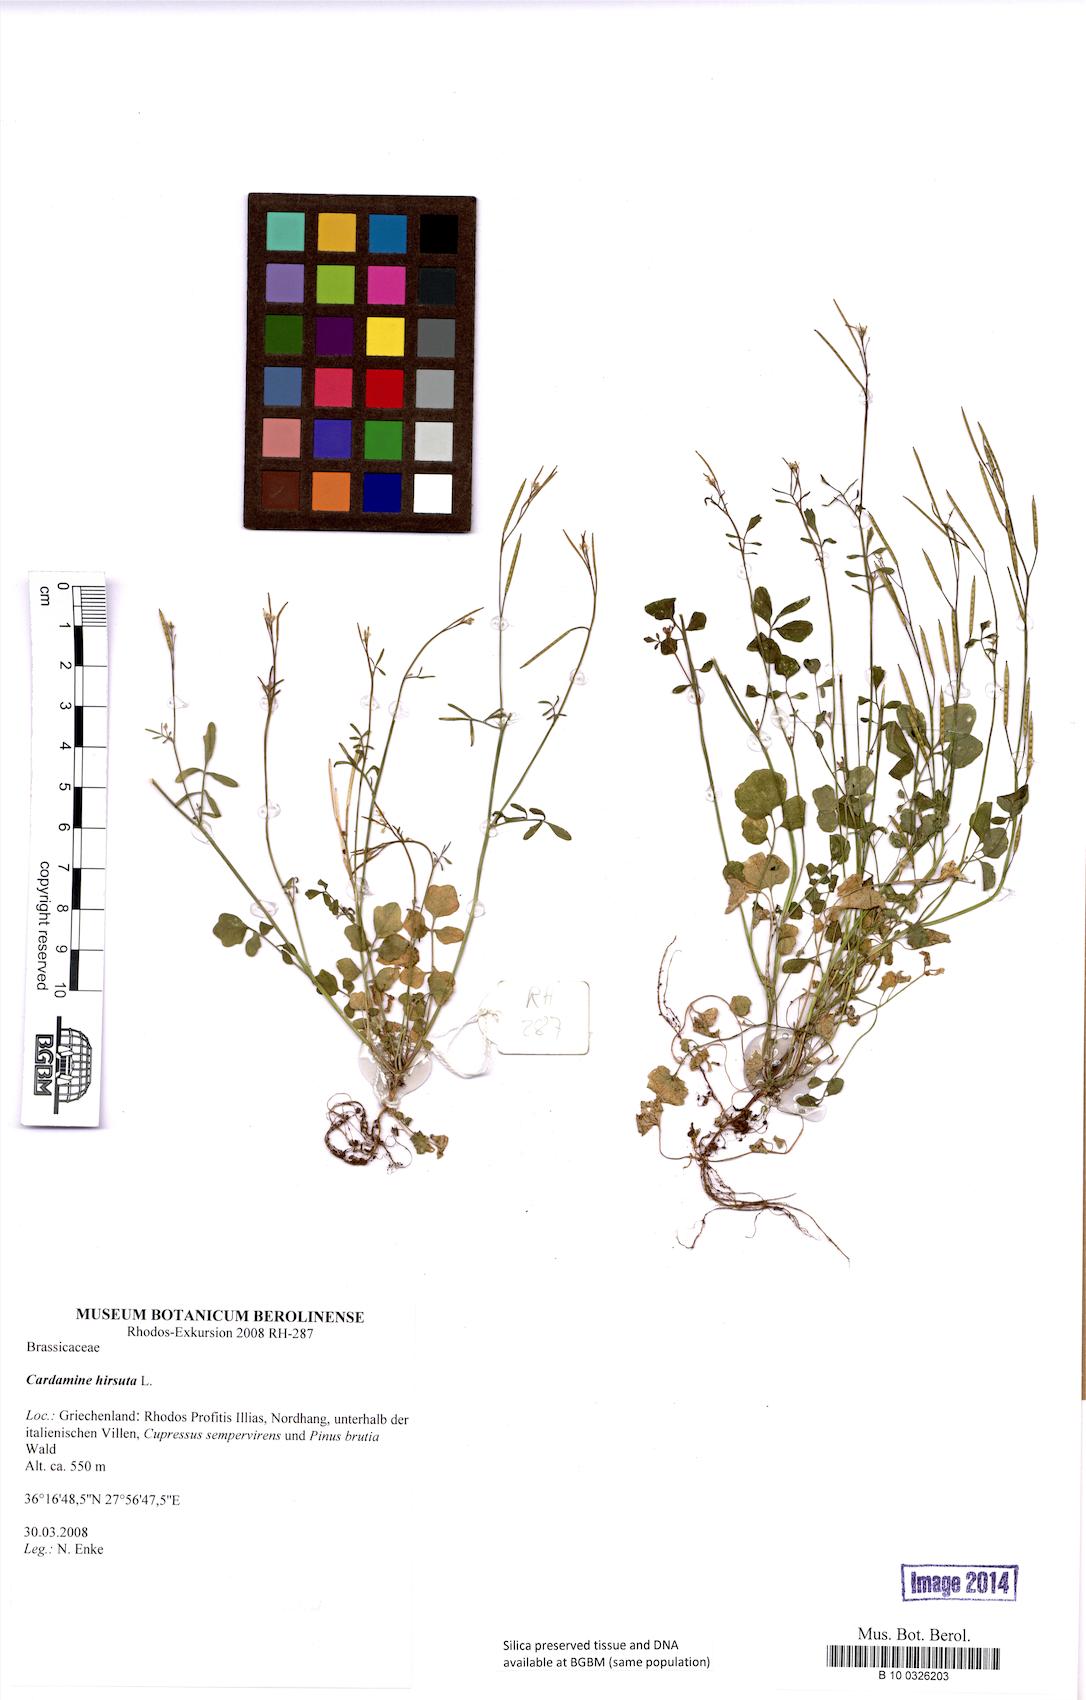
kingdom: Plantae
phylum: Tracheophyta
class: Magnoliopsida
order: Brassicales
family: Brassicaceae
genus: Cardamine
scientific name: Cardamine hirsuta
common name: Hairy bittercress
